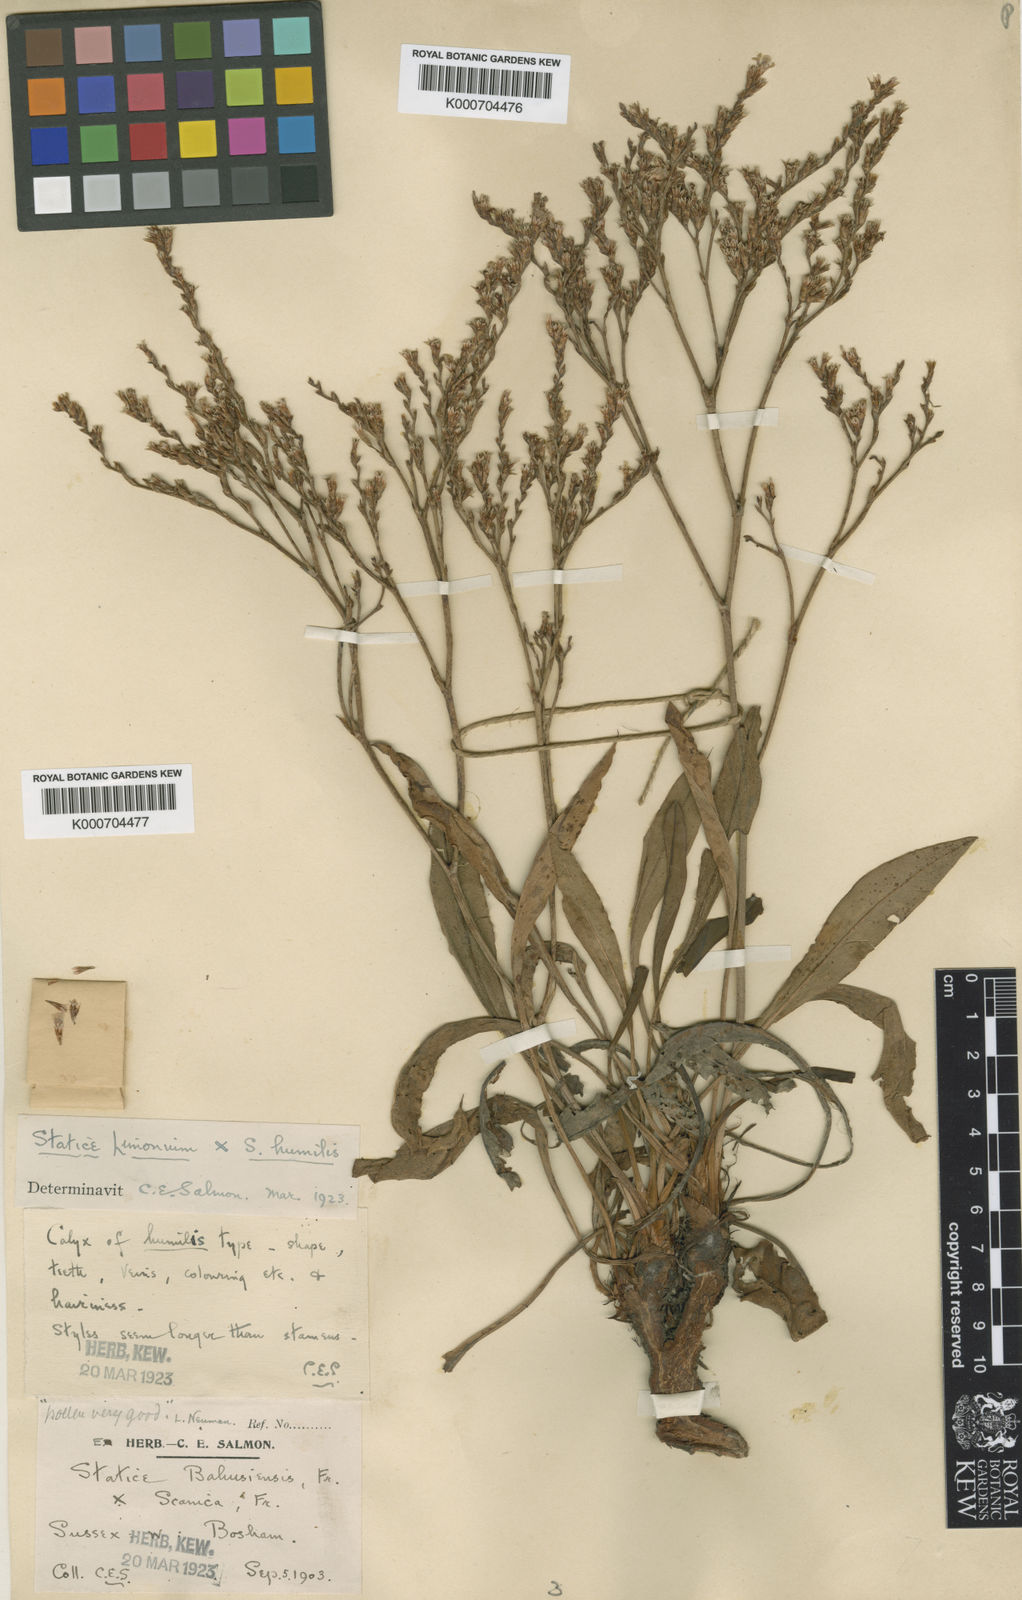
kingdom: Plantae
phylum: Tracheophyta
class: Magnoliopsida
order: Caryophyllales
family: Plumbaginaceae
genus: Limonium
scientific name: Limonium vulgare
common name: Common sea-lavender
